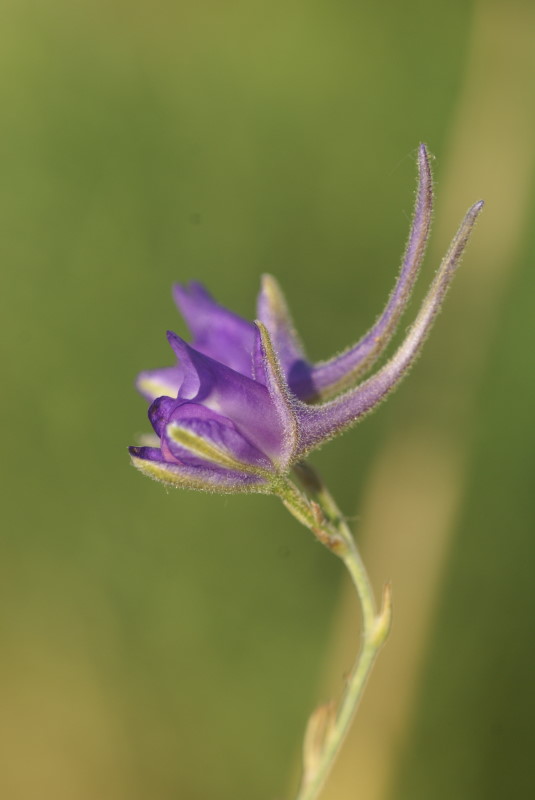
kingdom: Plantae
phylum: Tracheophyta
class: Magnoliopsida
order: Ranunculales
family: Ranunculaceae
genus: Delphinium
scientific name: Delphinium consolida
